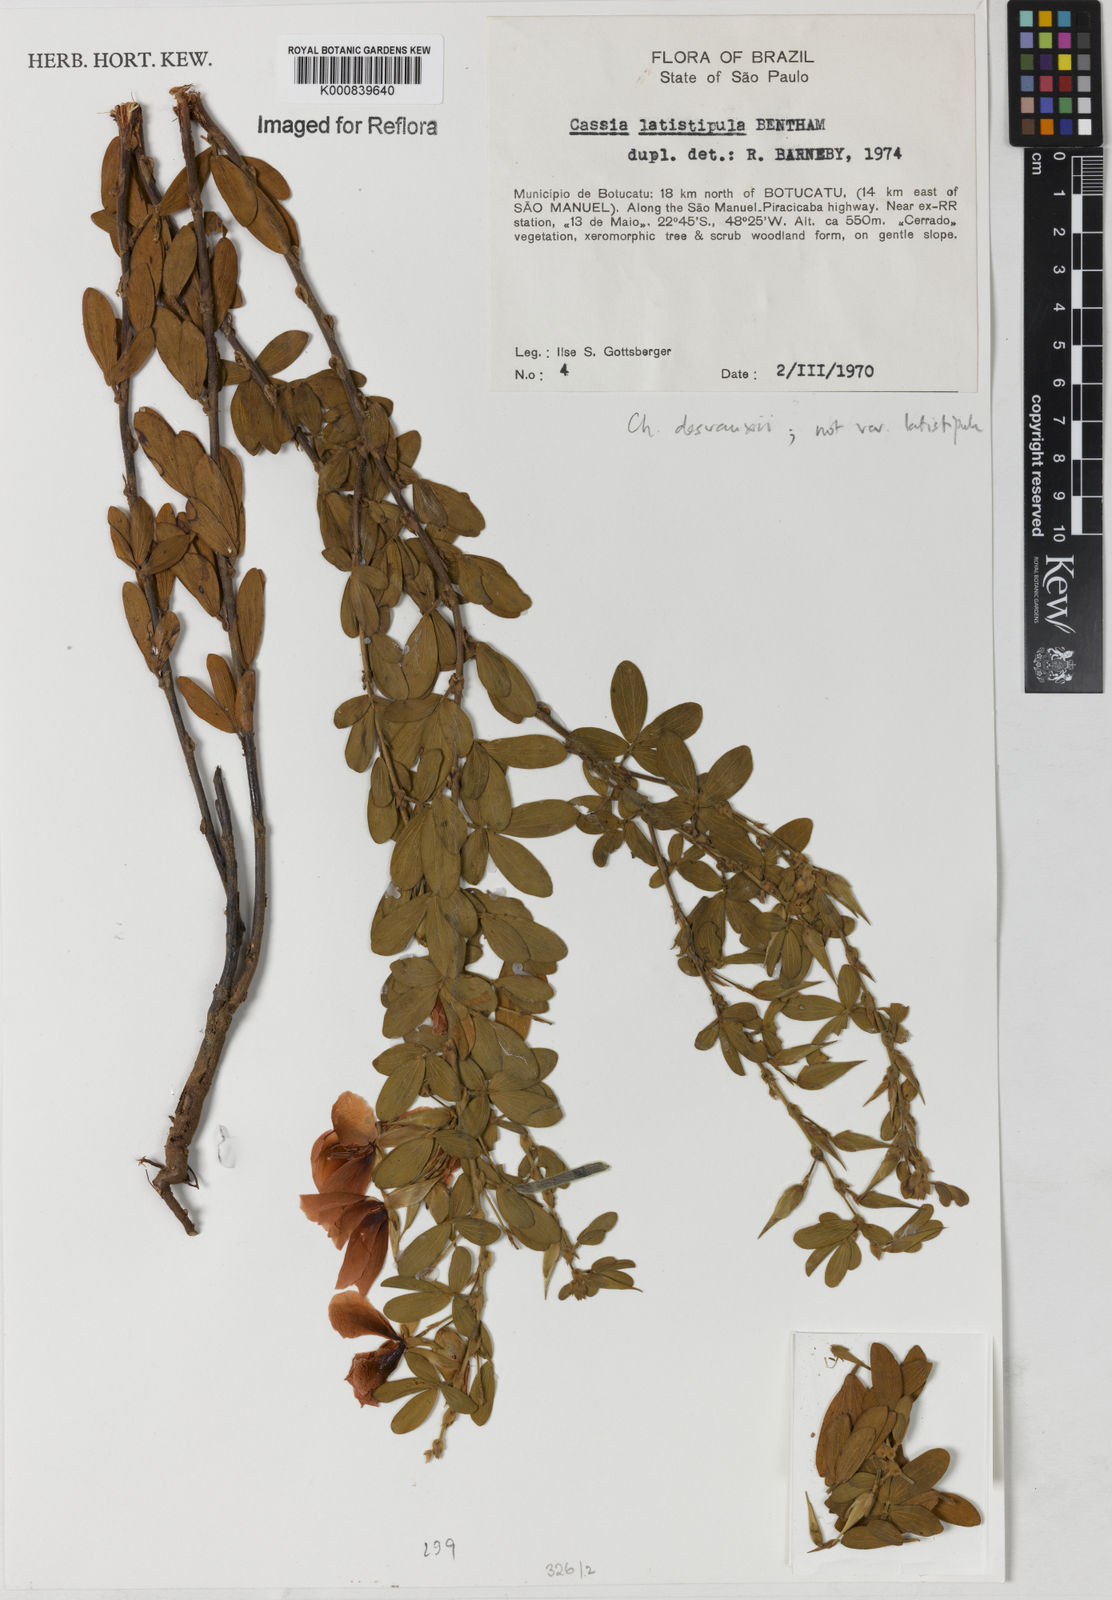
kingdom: Plantae
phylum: Tracheophyta
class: Magnoliopsida
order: Fabales
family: Fabaceae
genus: Chamaecrista
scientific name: Chamaecrista desvauxii
